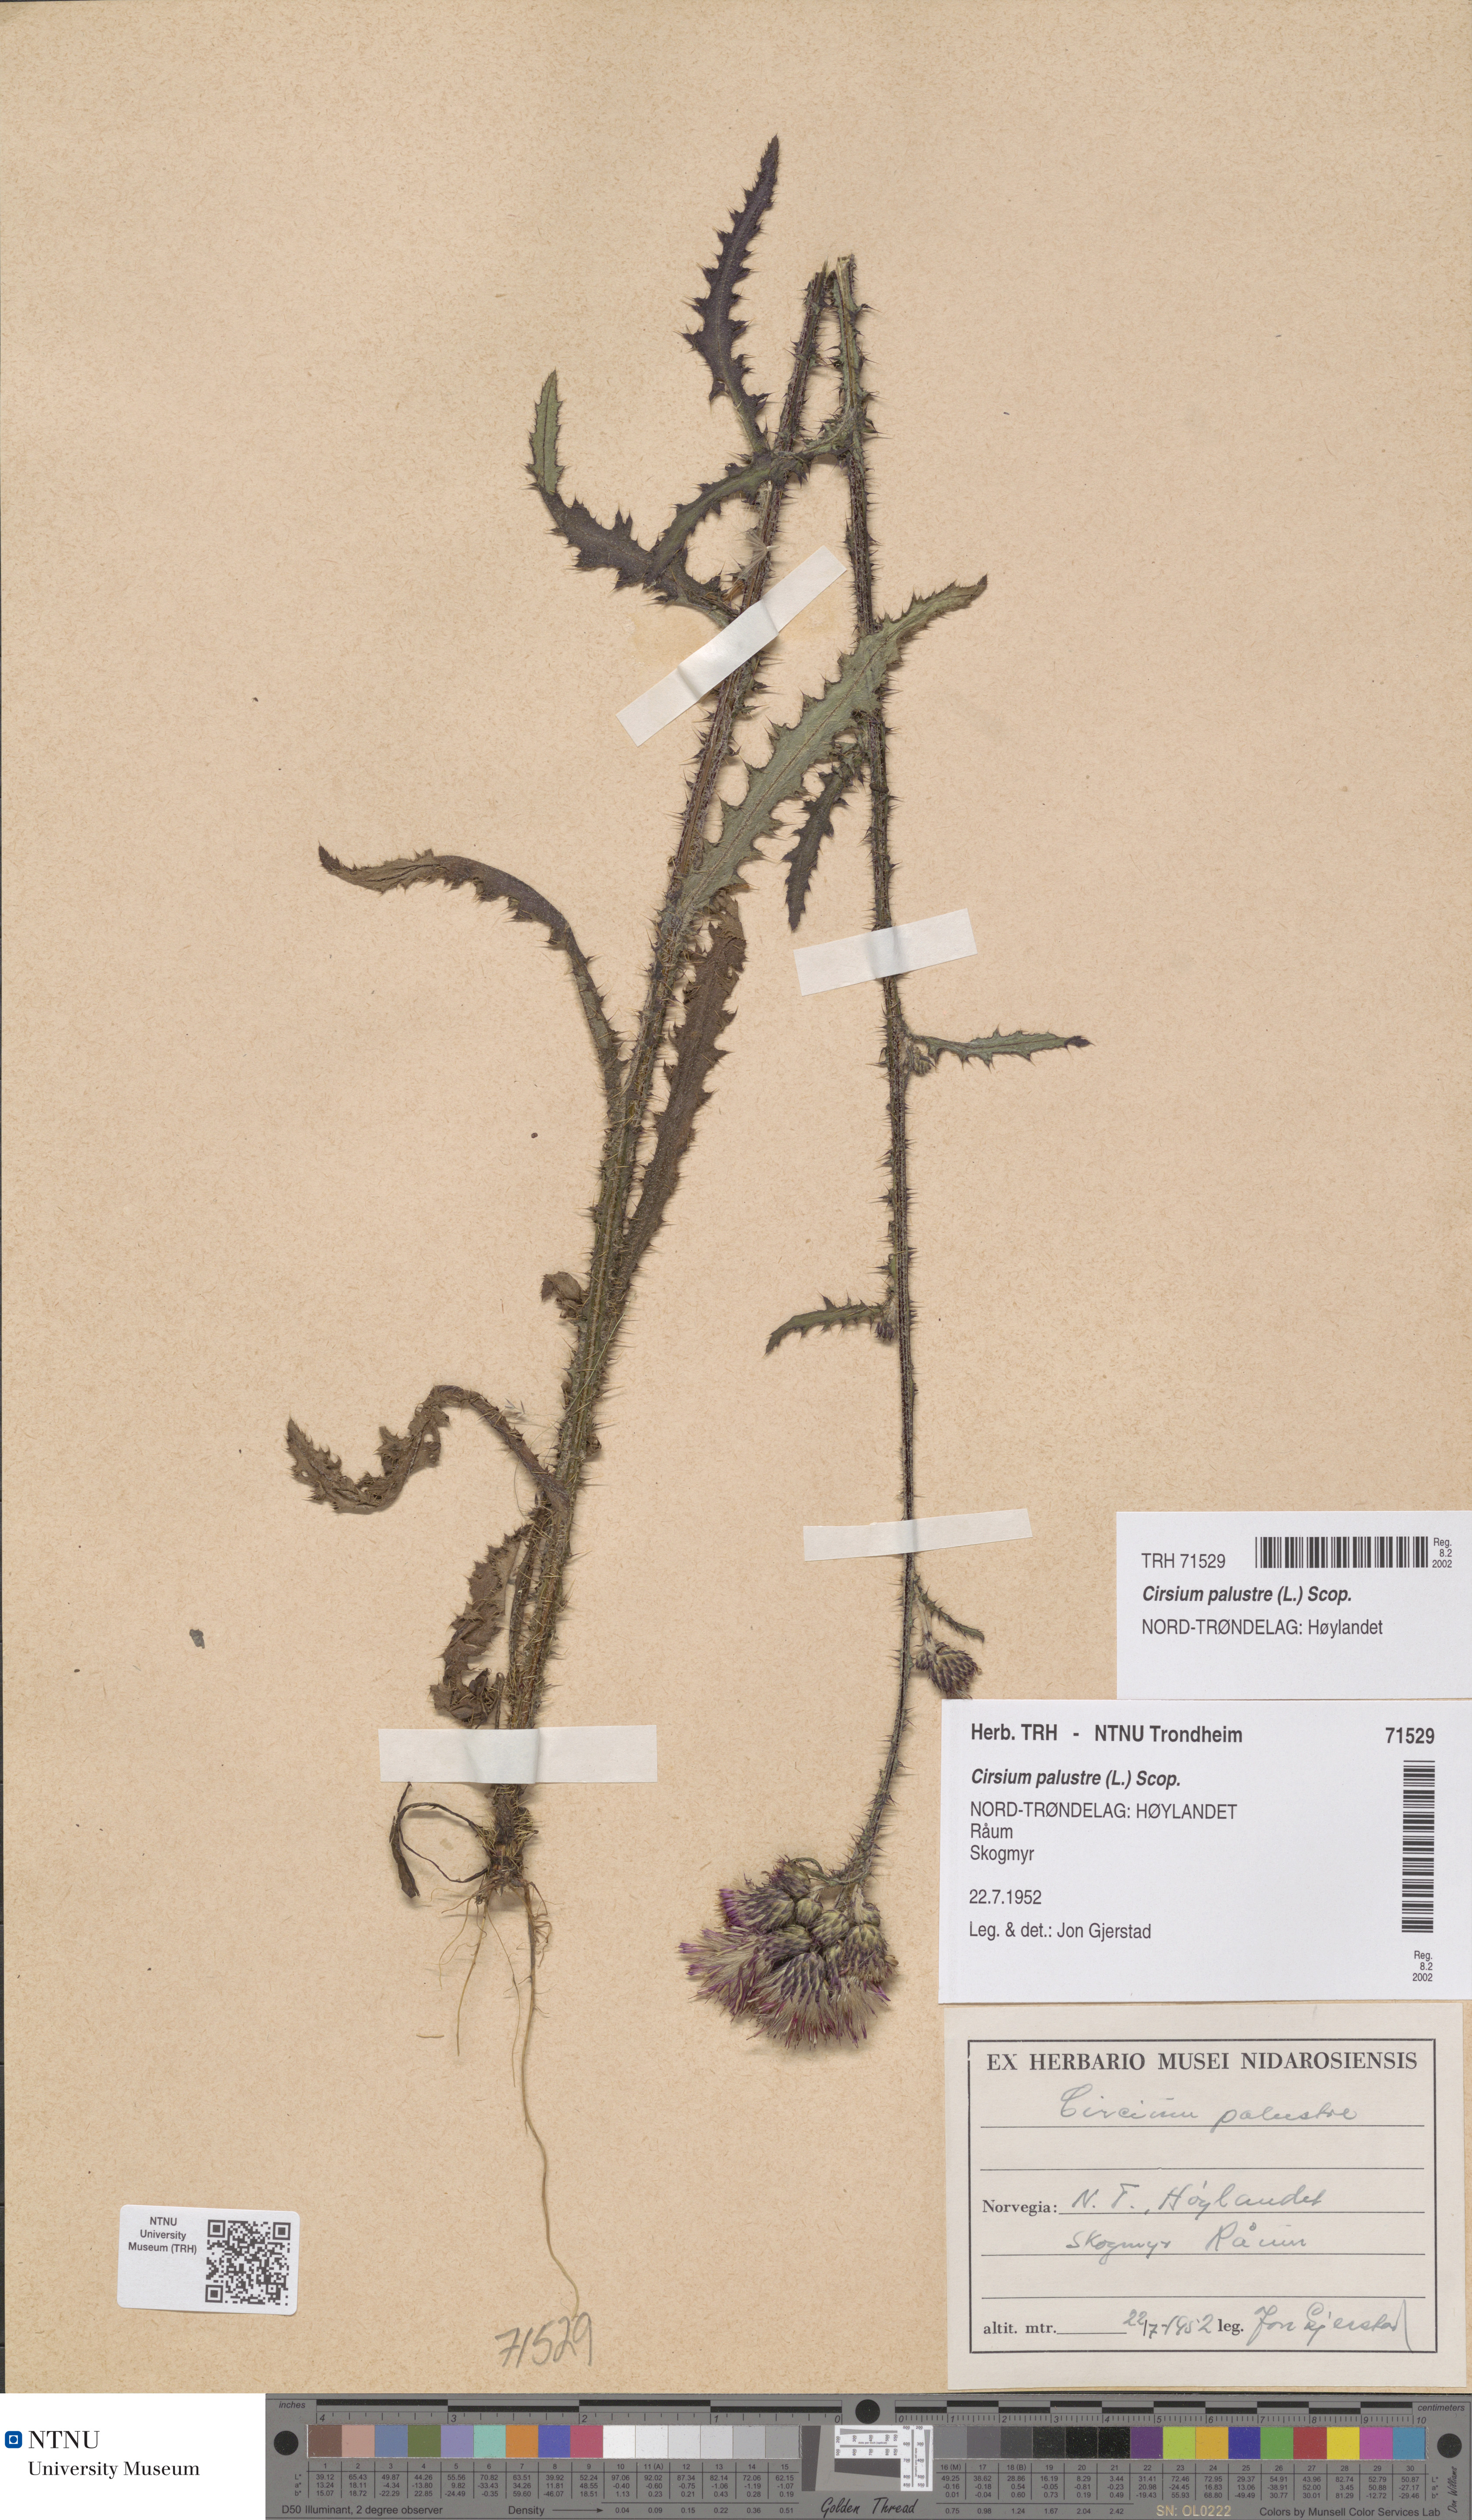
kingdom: Plantae
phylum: Tracheophyta
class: Magnoliopsida
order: Asterales
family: Asteraceae
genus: Cirsium
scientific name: Cirsium palustre
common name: Marsh thistle
